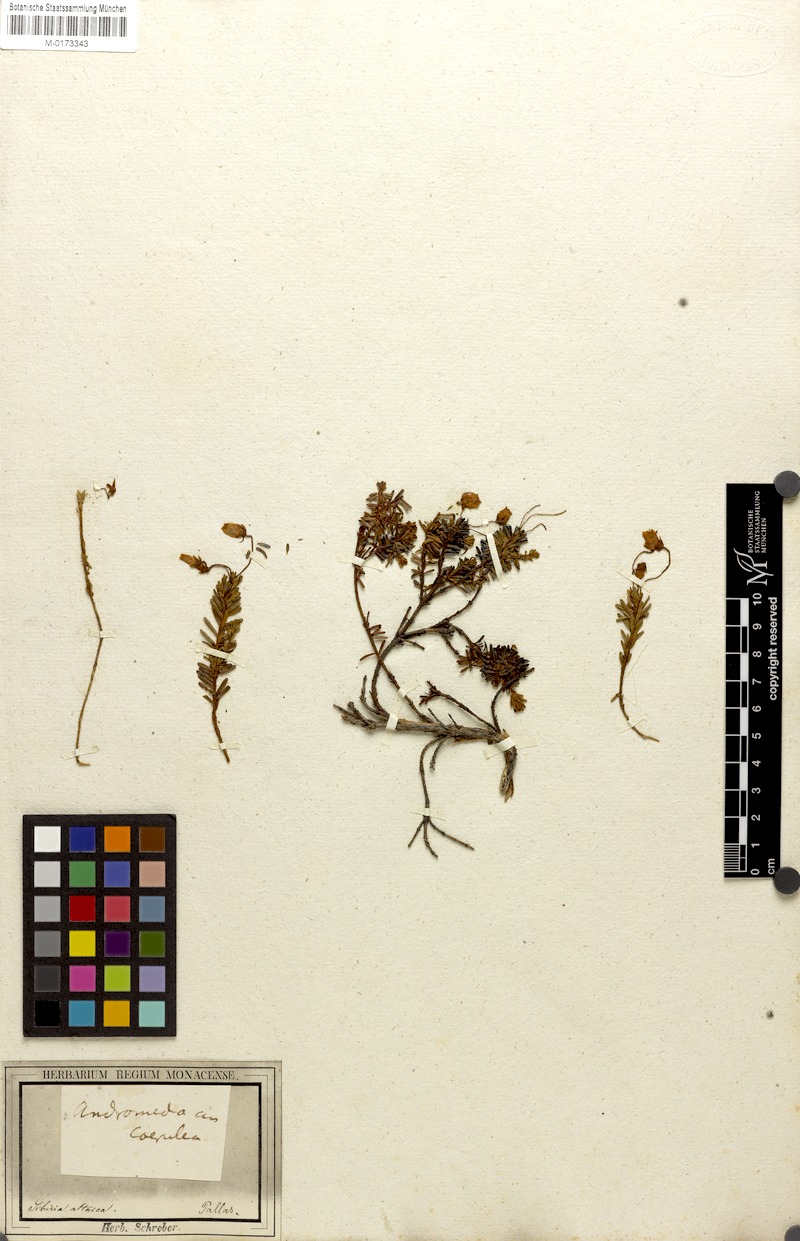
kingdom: Plantae
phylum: Tracheophyta
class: Magnoliopsida
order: Ericales
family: Ericaceae
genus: Phyllodoce
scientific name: Phyllodoce caerulea
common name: Blue heath
